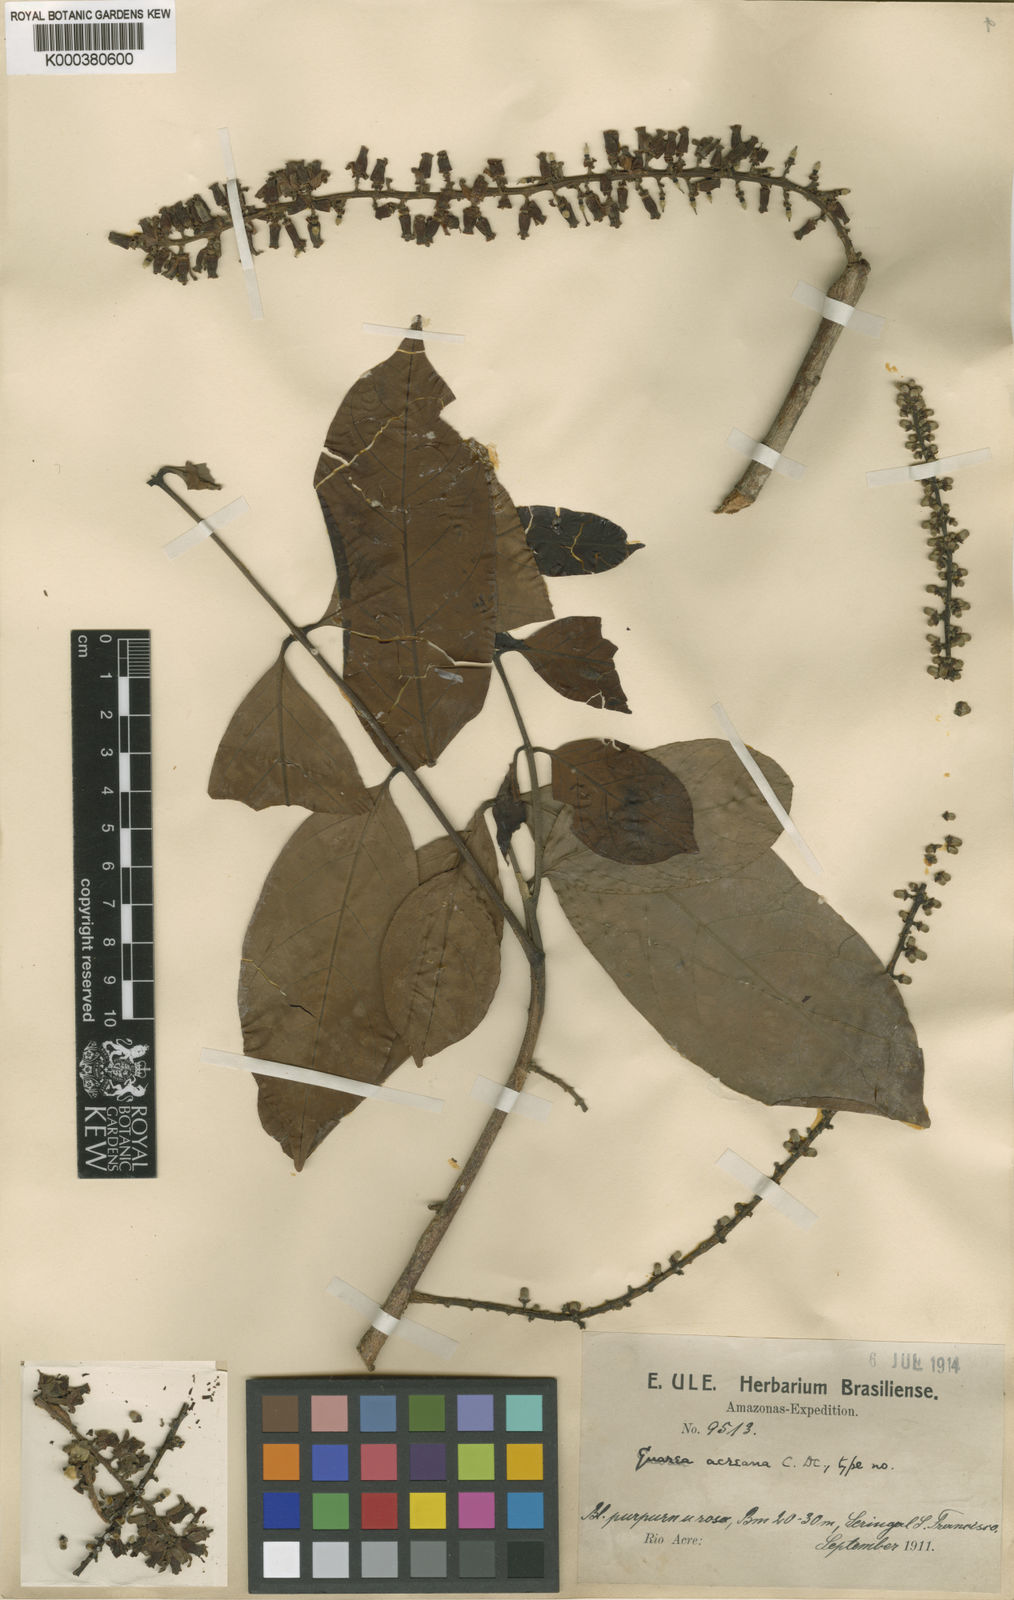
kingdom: Plantae
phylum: Tracheophyta
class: Magnoliopsida
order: Sapindales
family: Meliaceae
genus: Guarea
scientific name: Guarea macrophylla
